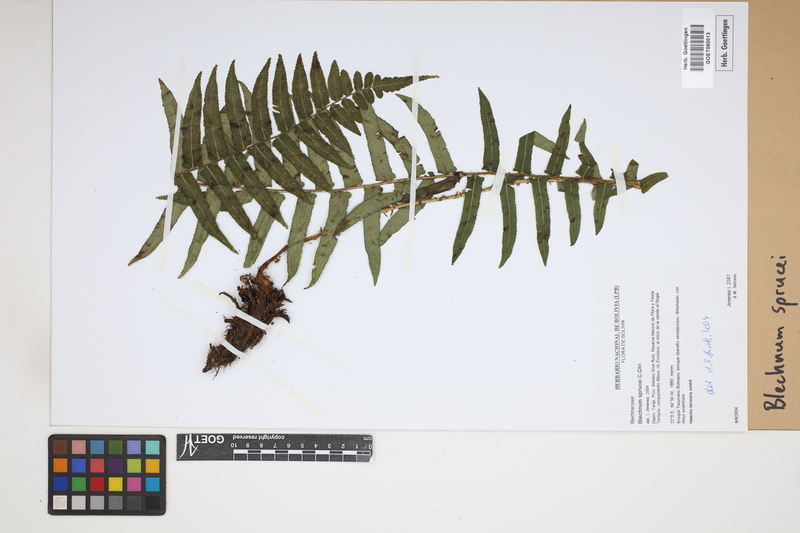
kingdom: Plantae
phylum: Tracheophyta
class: Polypodiopsida
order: Polypodiales
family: Blechnaceae
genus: Cranfillia
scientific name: Cranfillia caudata
